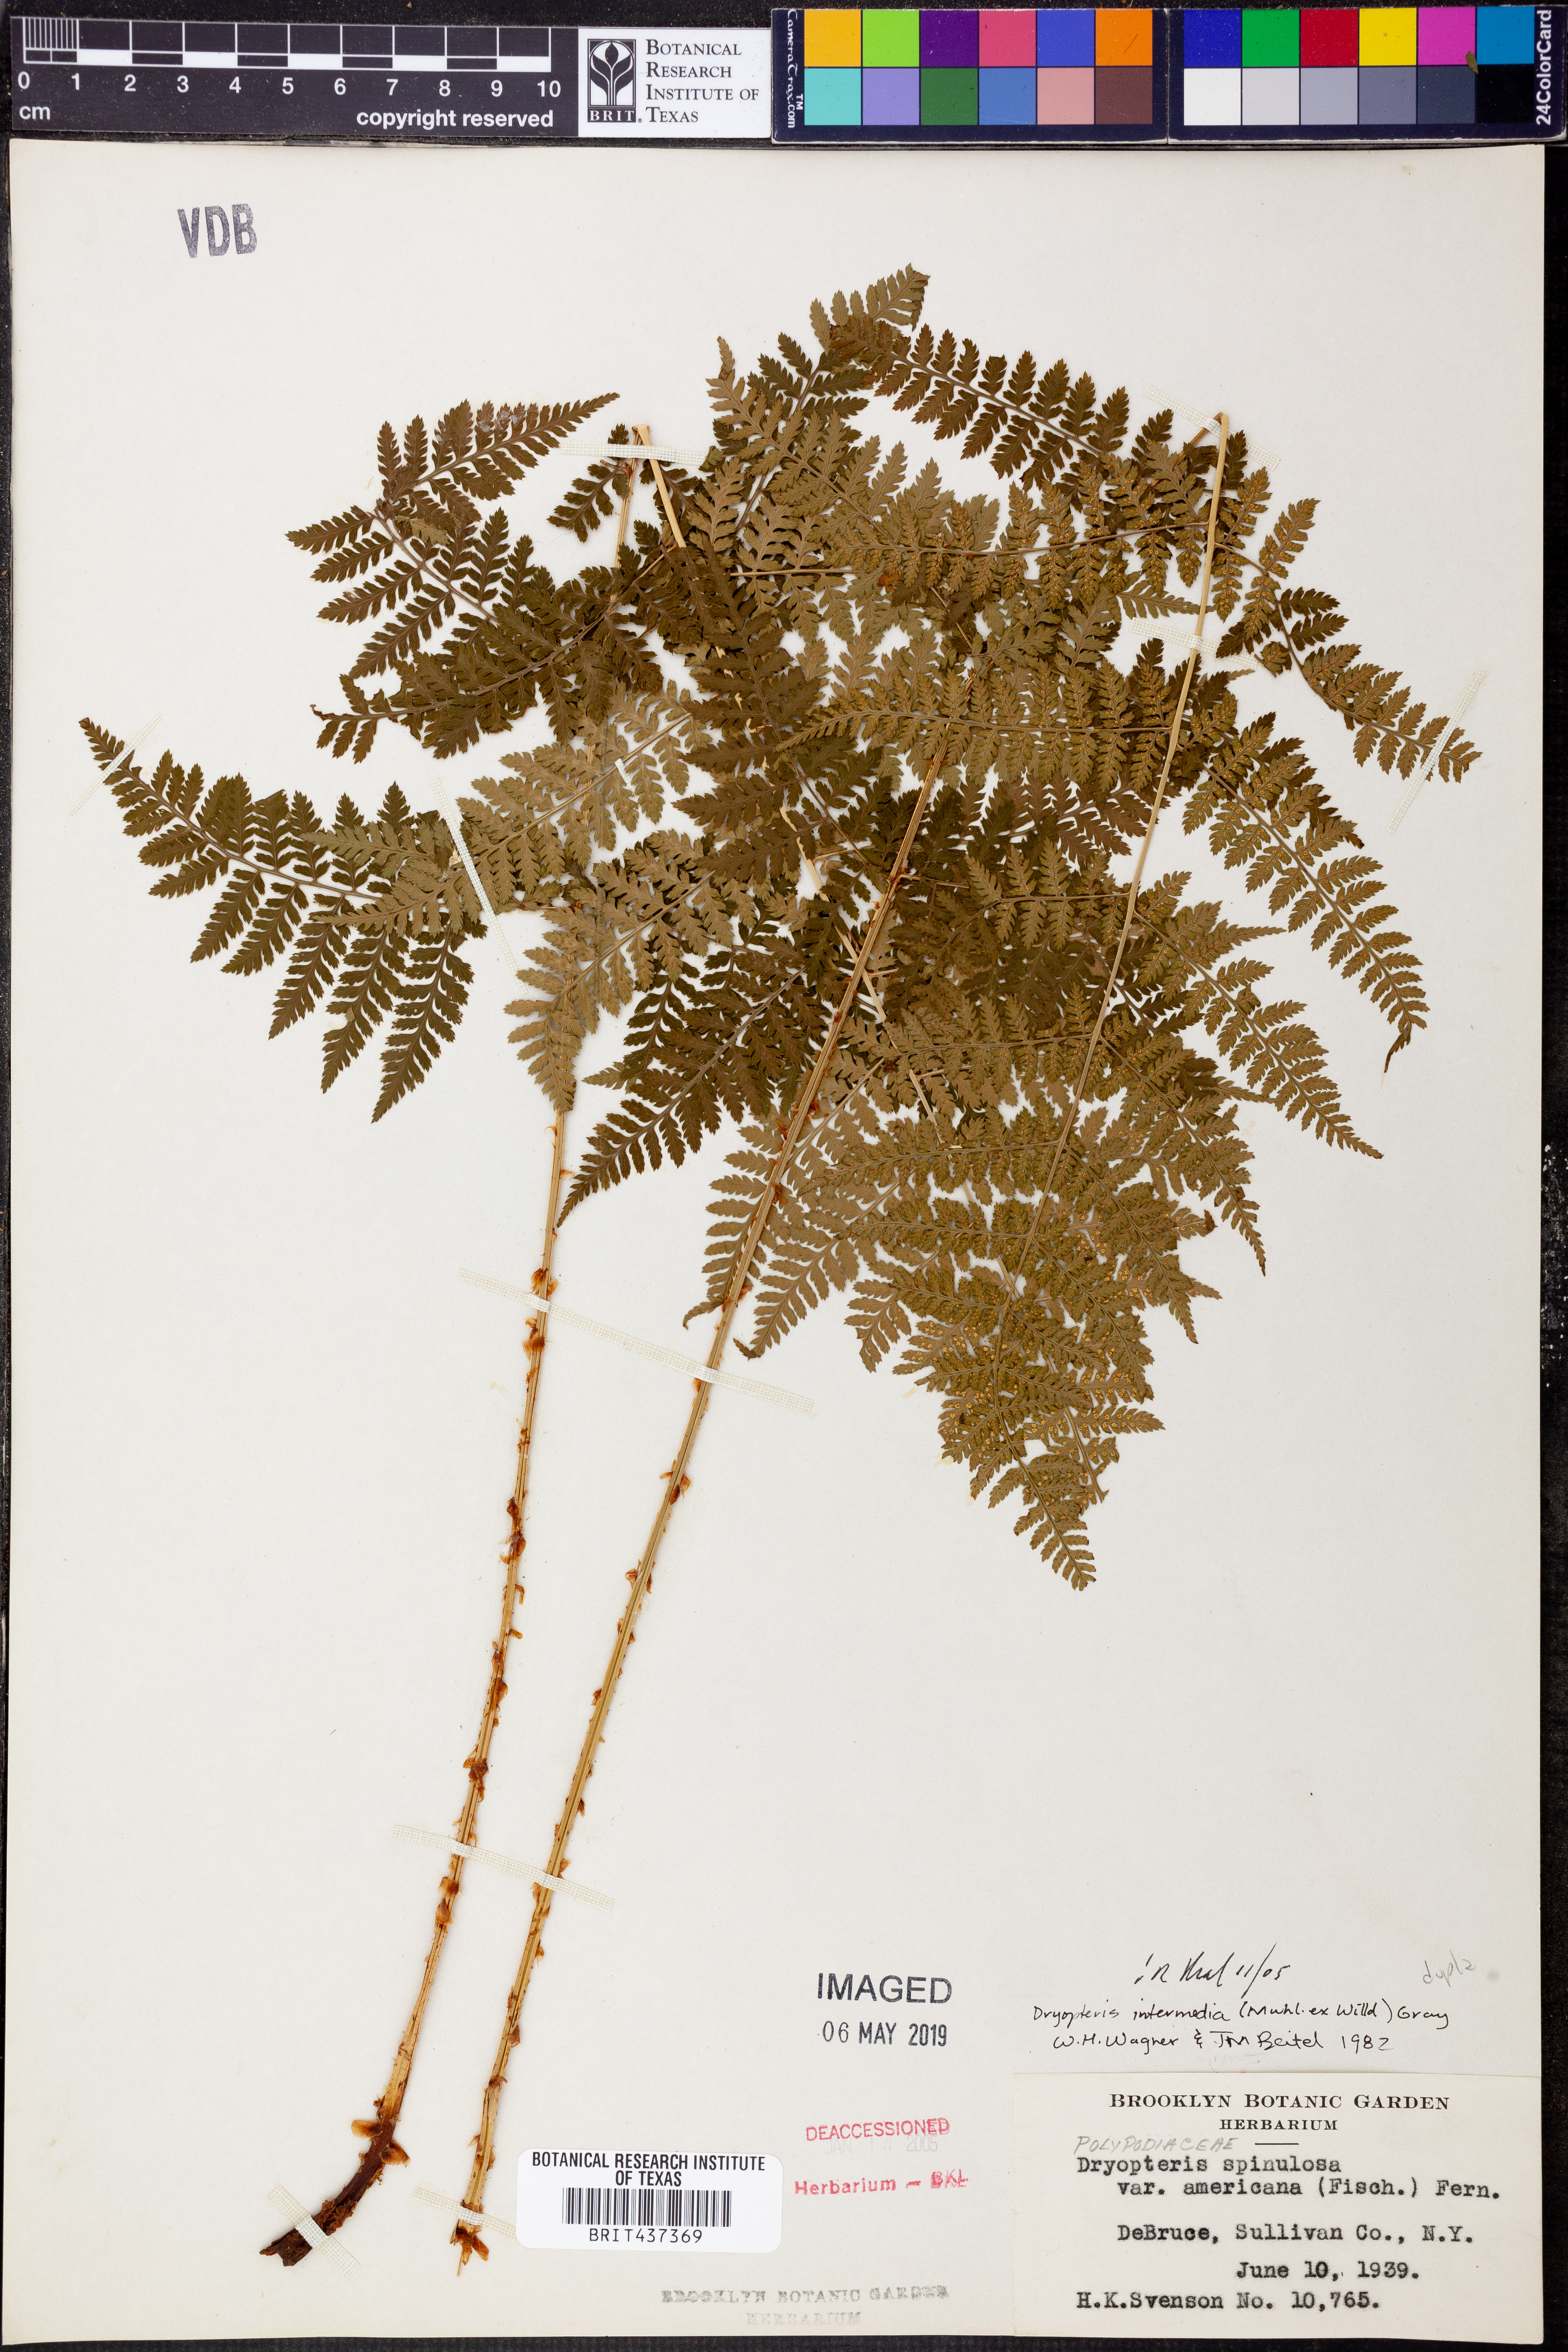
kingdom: Plantae
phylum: Tracheophyta
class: Polypodiopsida
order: Polypodiales
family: Dryopteridaceae
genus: Dryopteris
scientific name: Dryopteris intermedia
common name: Evergreen wood fern
